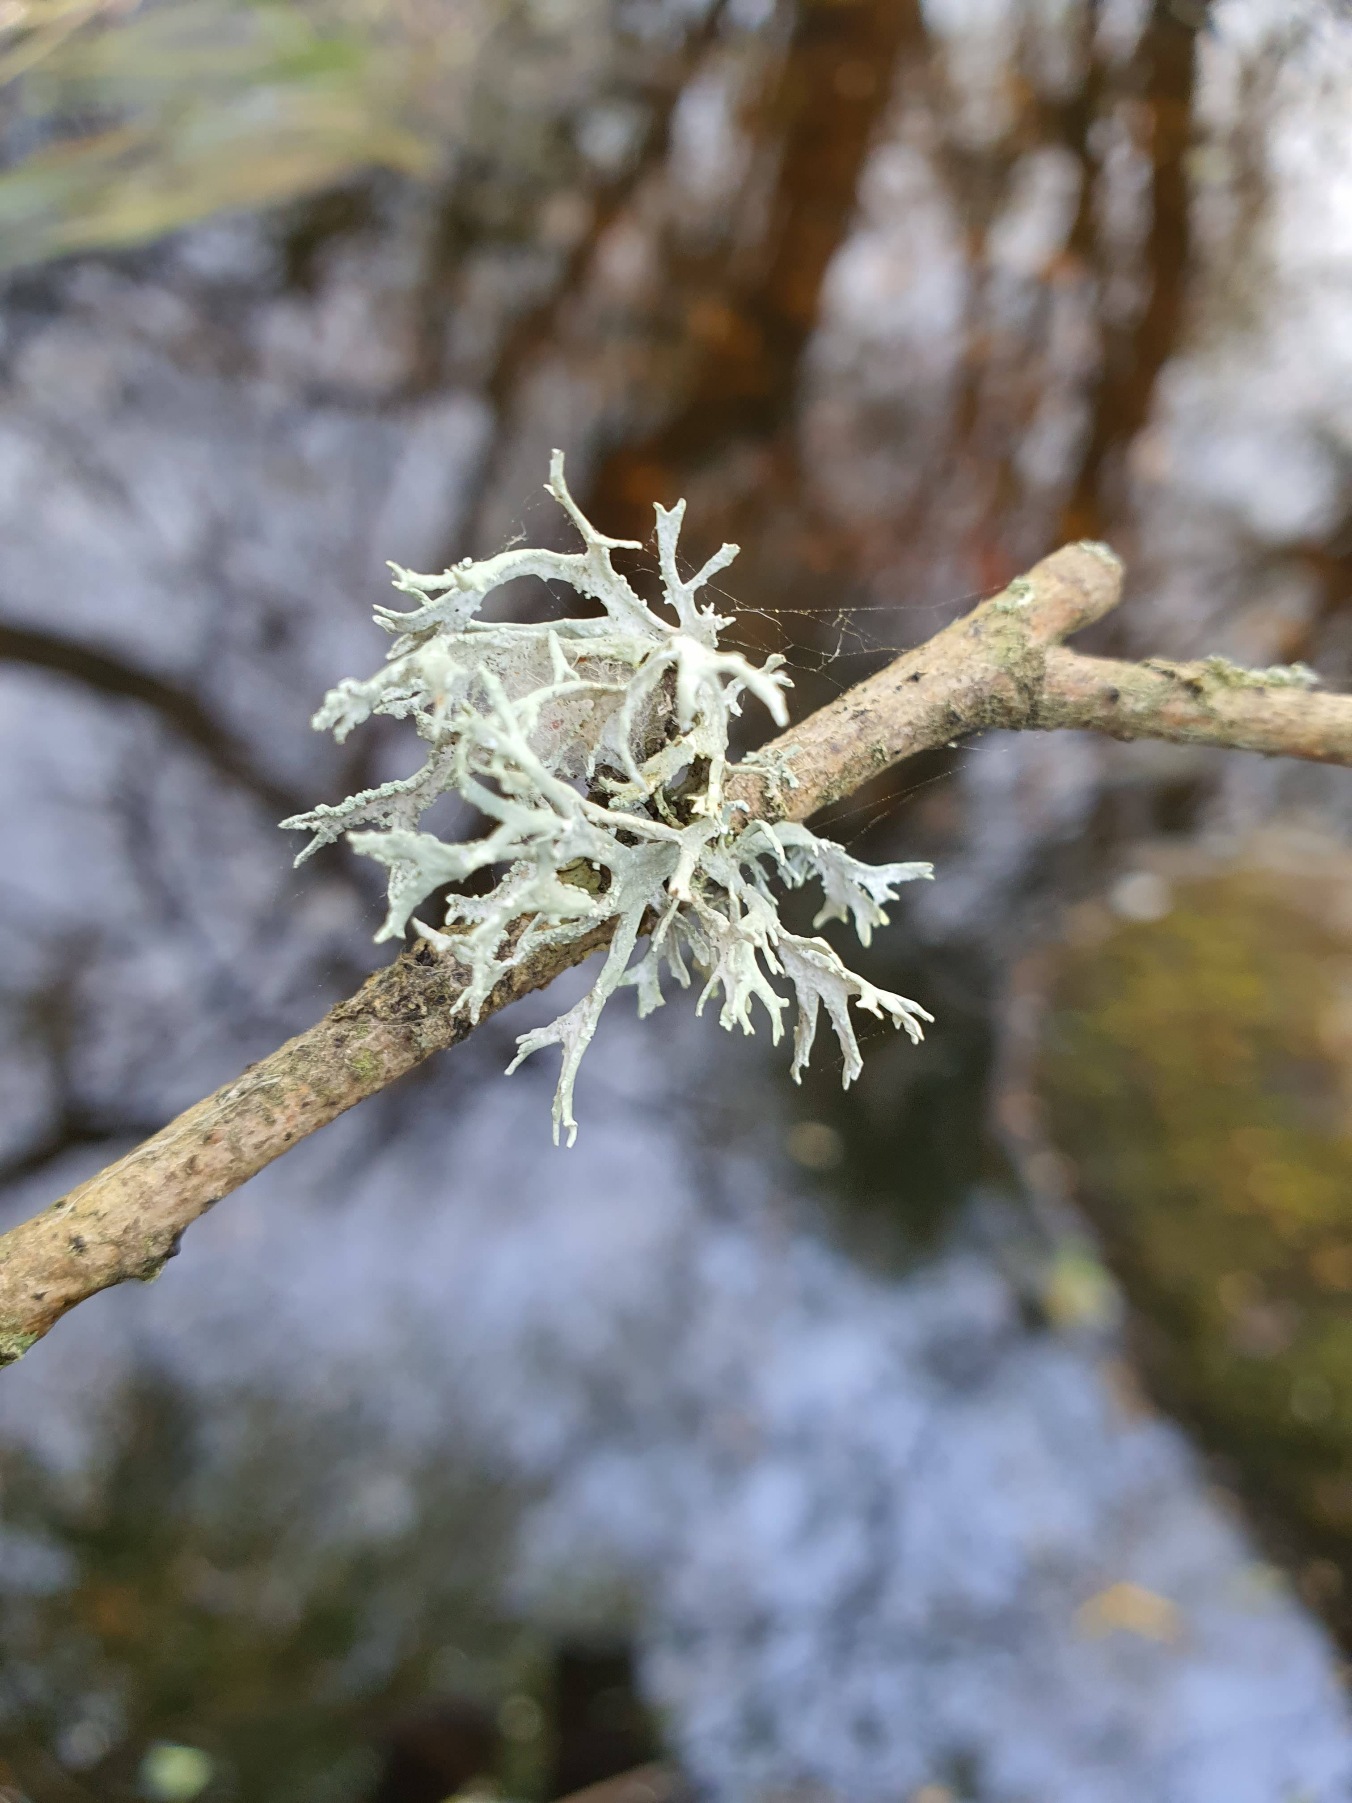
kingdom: Fungi
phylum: Ascomycota
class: Lecanoromycetes
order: Lecanorales
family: Parmeliaceae
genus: Evernia
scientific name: Evernia prunastri
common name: Almindelig slåenlav
